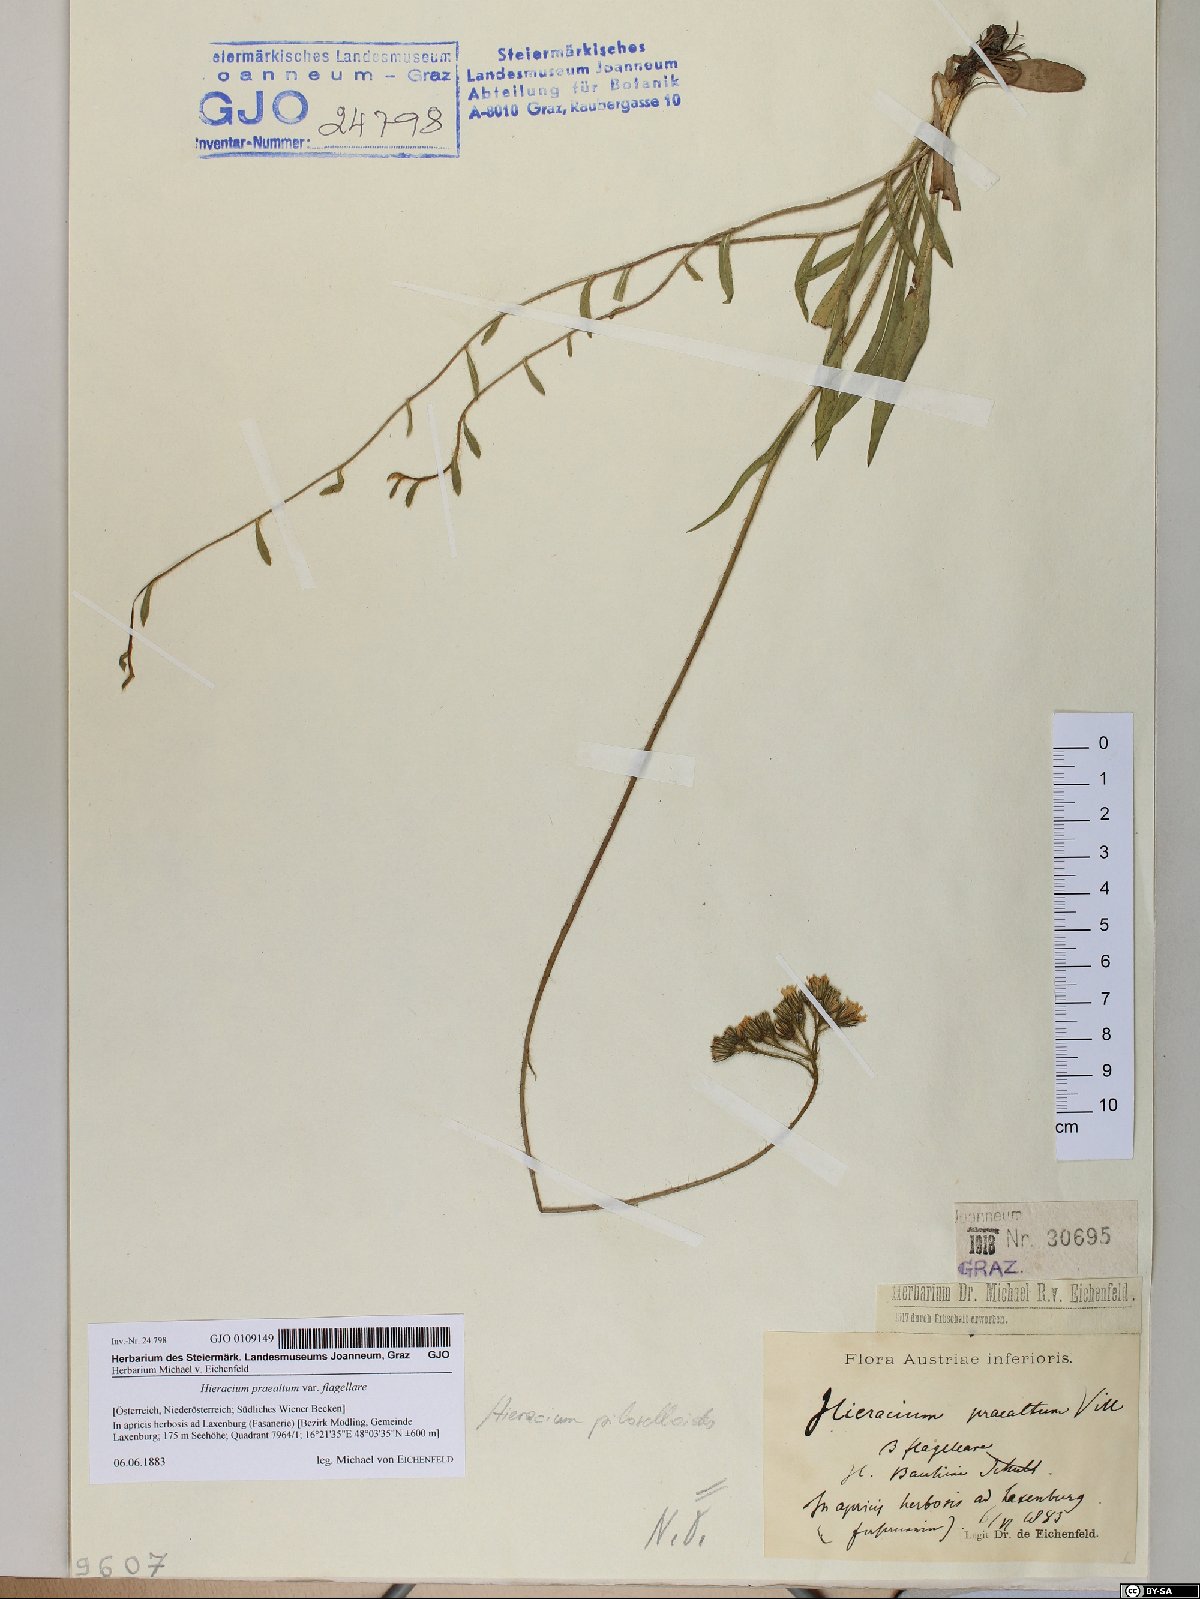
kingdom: Plantae
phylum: Tracheophyta
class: Magnoliopsida
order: Asterales
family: Asteraceae
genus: Hieracium
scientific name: Hieracium praealtum
